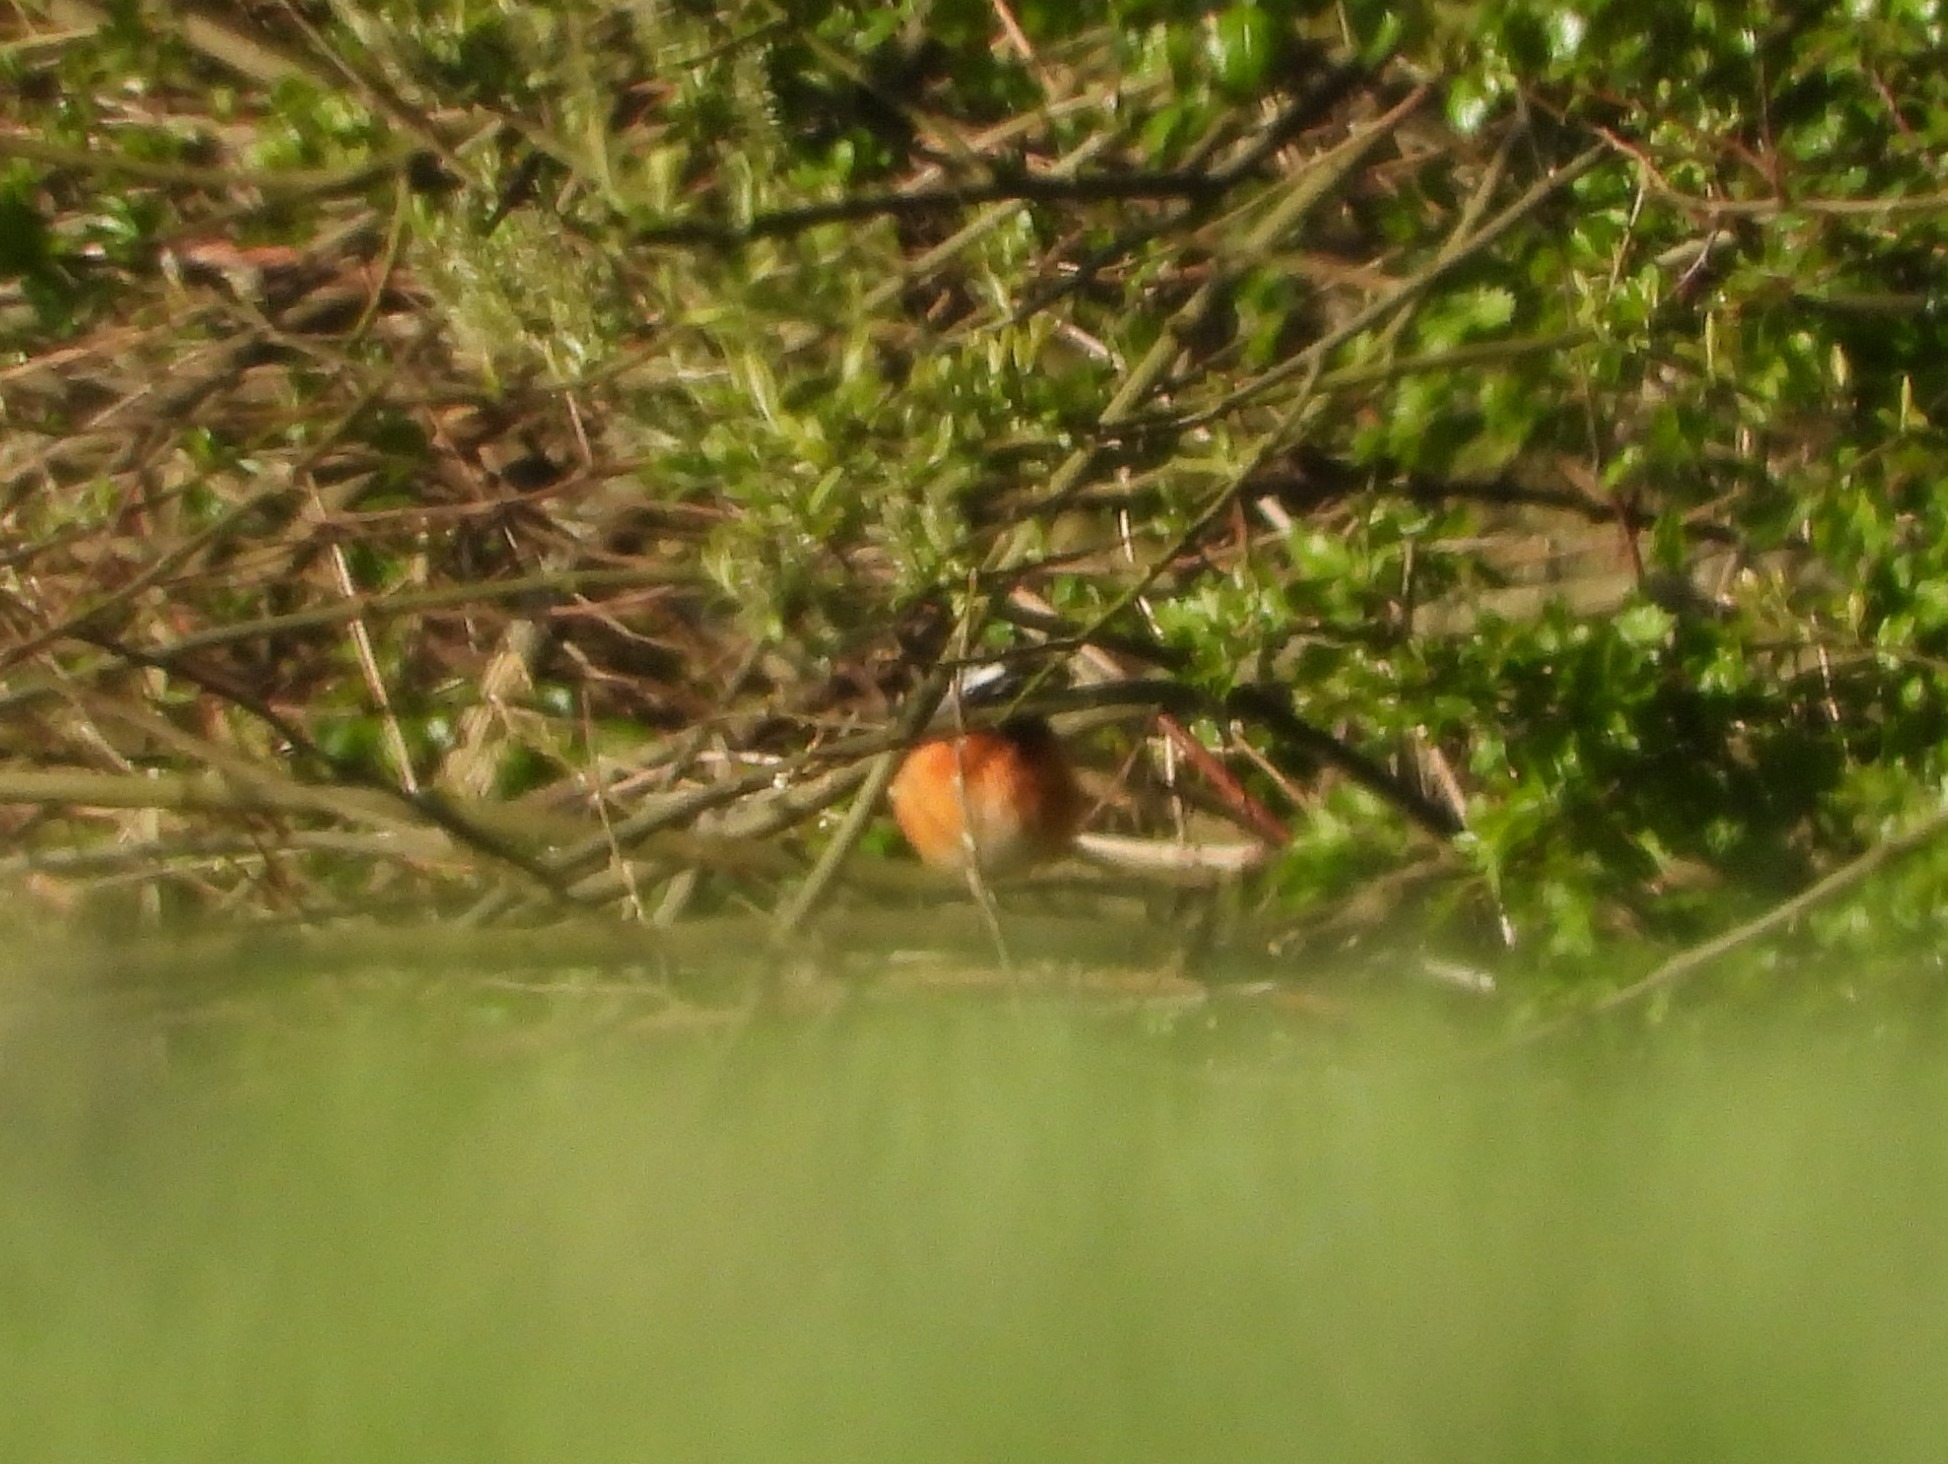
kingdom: Animalia
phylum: Chordata
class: Aves
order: Passeriformes
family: Muscicapidae
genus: Phoenicurus
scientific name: Phoenicurus phoenicurus
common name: Rødstjert
